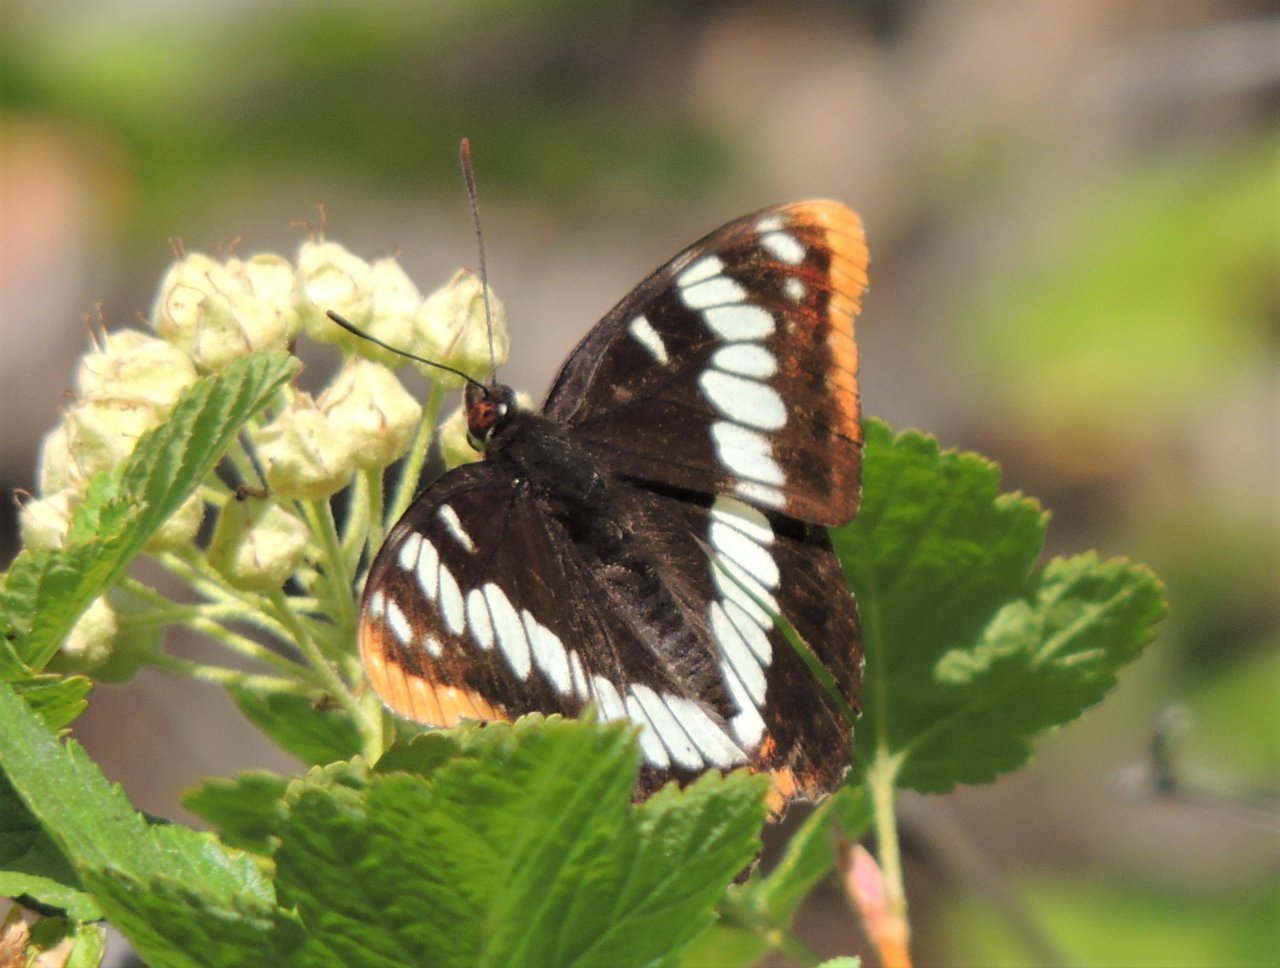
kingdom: Animalia
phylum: Arthropoda
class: Insecta
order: Lepidoptera
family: Nymphalidae
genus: Limenitis
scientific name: Limenitis lorquini
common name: Lorquin's Admiral
